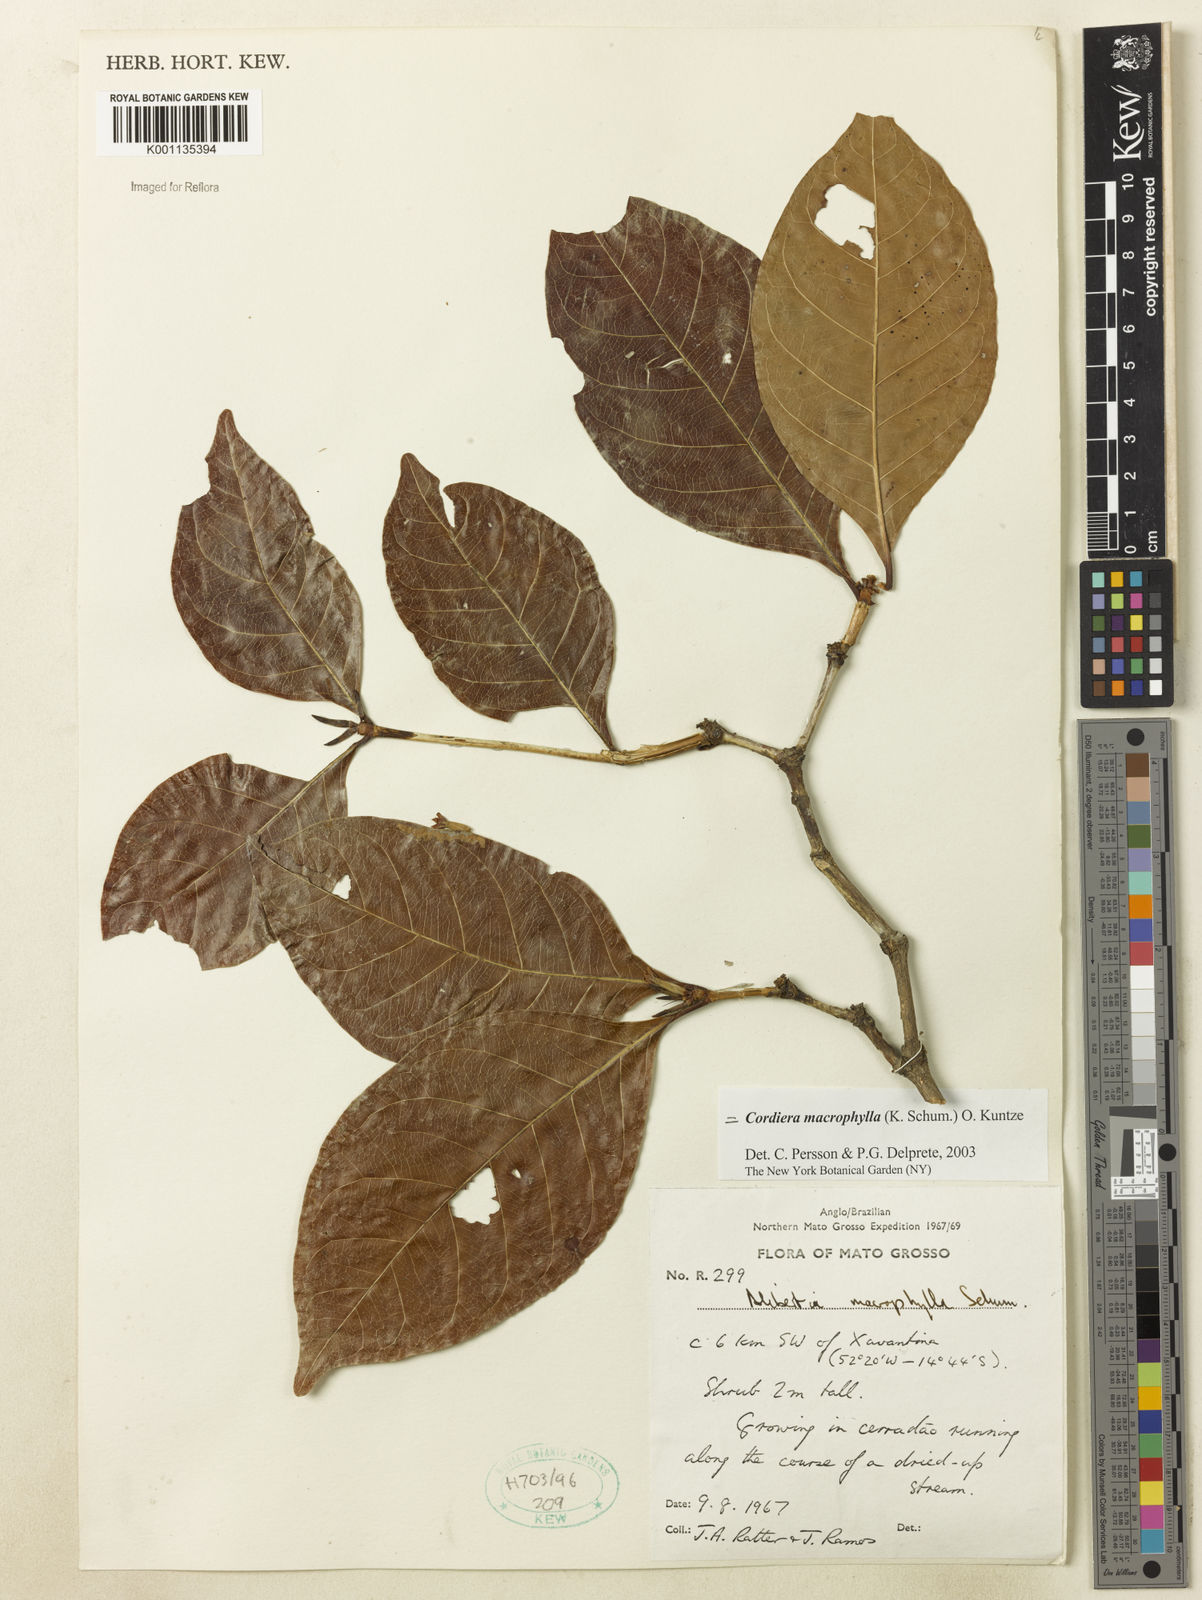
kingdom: Plantae
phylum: Tracheophyta
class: Magnoliopsida
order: Gentianales
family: Rubiaceae
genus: Cordiera
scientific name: Cordiera macrophylla
